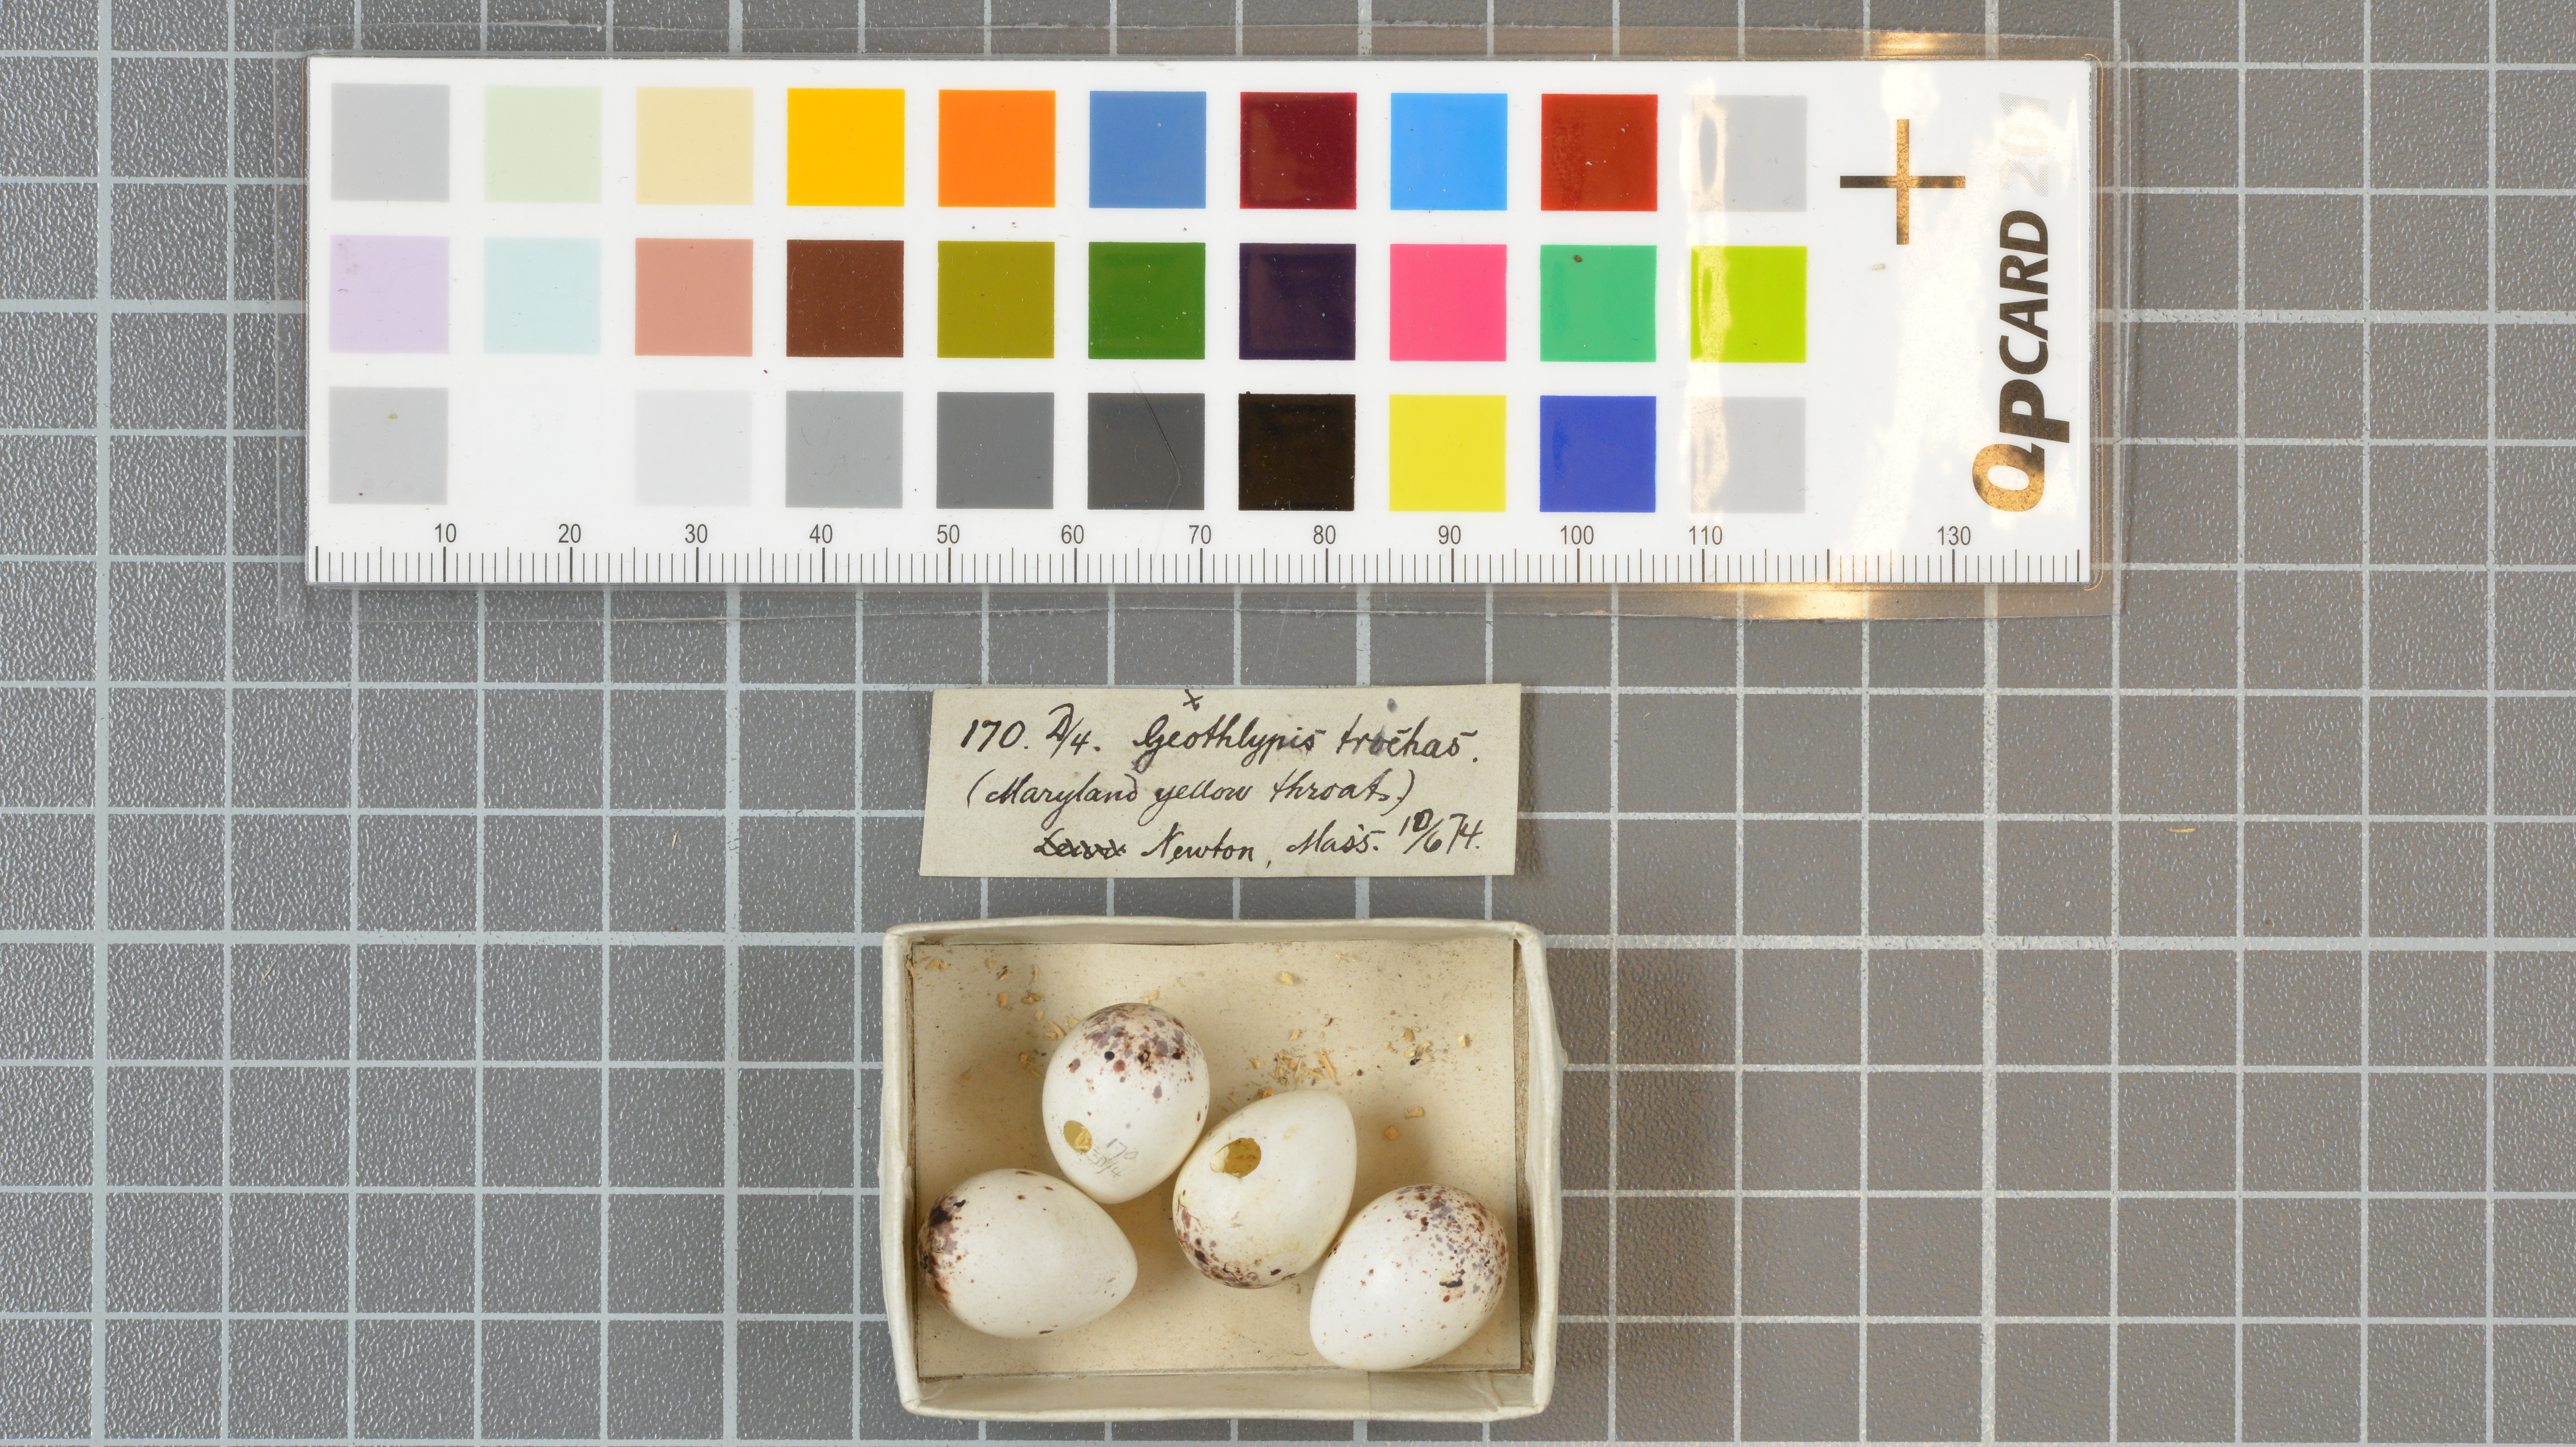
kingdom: Animalia
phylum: Chordata
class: Aves
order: Passeriformes
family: Parulidae
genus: Geothlypis
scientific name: Geothlypis trichas
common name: Common yellowthroat
